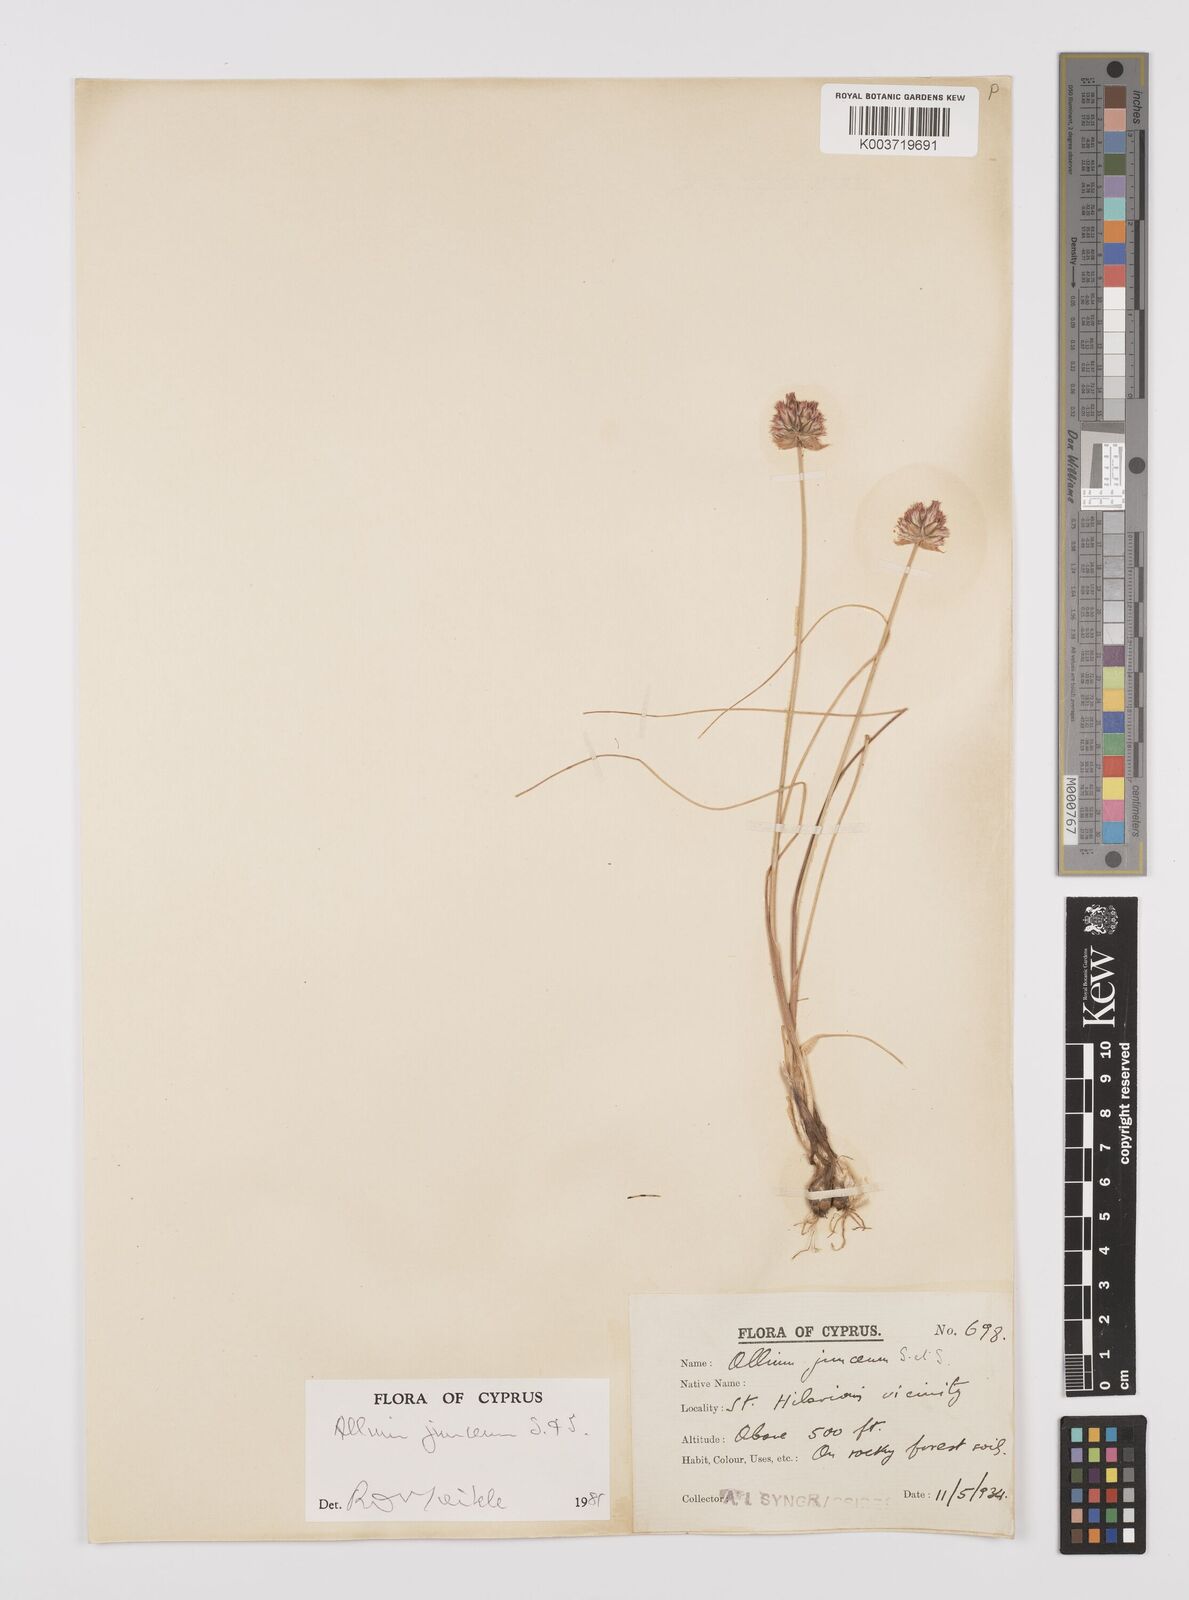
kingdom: Plantae
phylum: Tracheophyta
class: Liliopsida
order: Asparagales
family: Amaryllidaceae
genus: Allium
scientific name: Allium junceum
